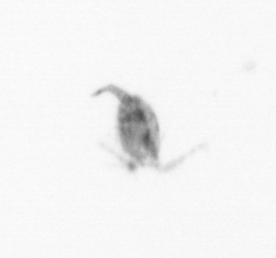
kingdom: Animalia
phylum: Arthropoda
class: Copepoda
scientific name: Copepoda
